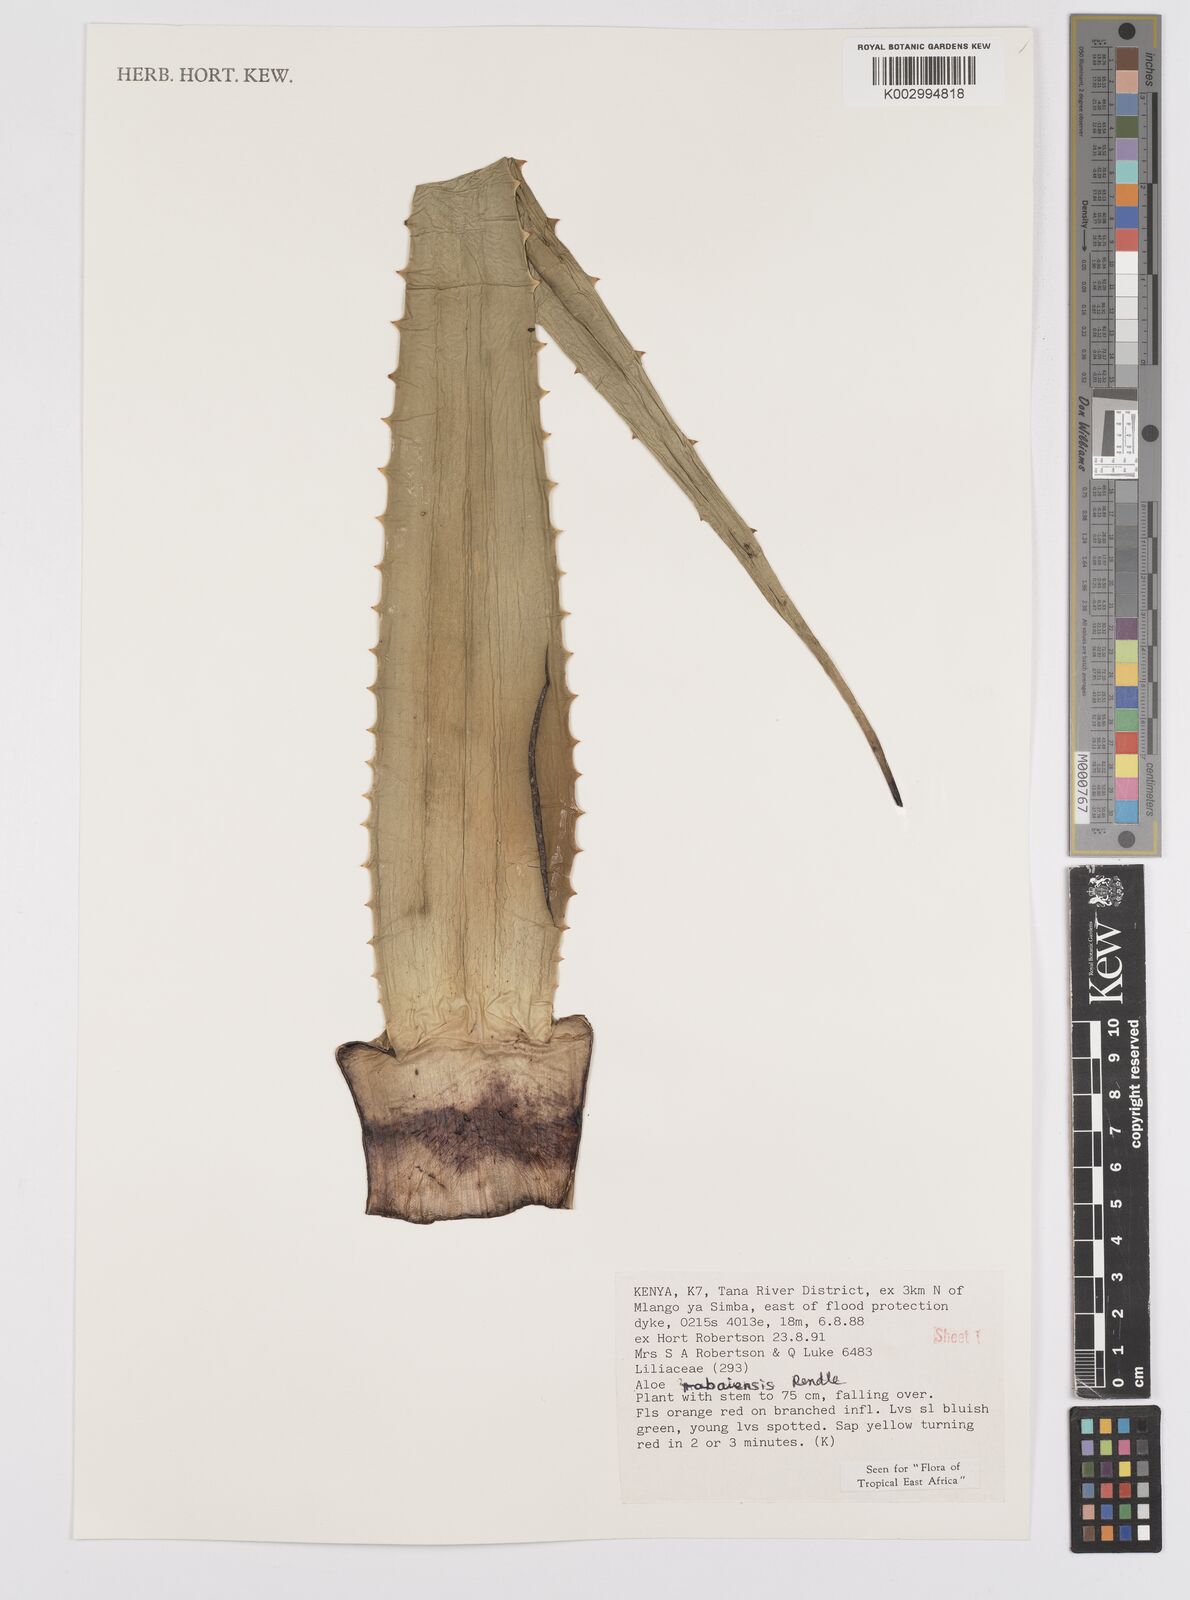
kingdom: Plantae
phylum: Tracheophyta
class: Liliopsida
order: Asparagales
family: Asphodelaceae
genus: Aloe
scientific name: Aloe rabaiensis
